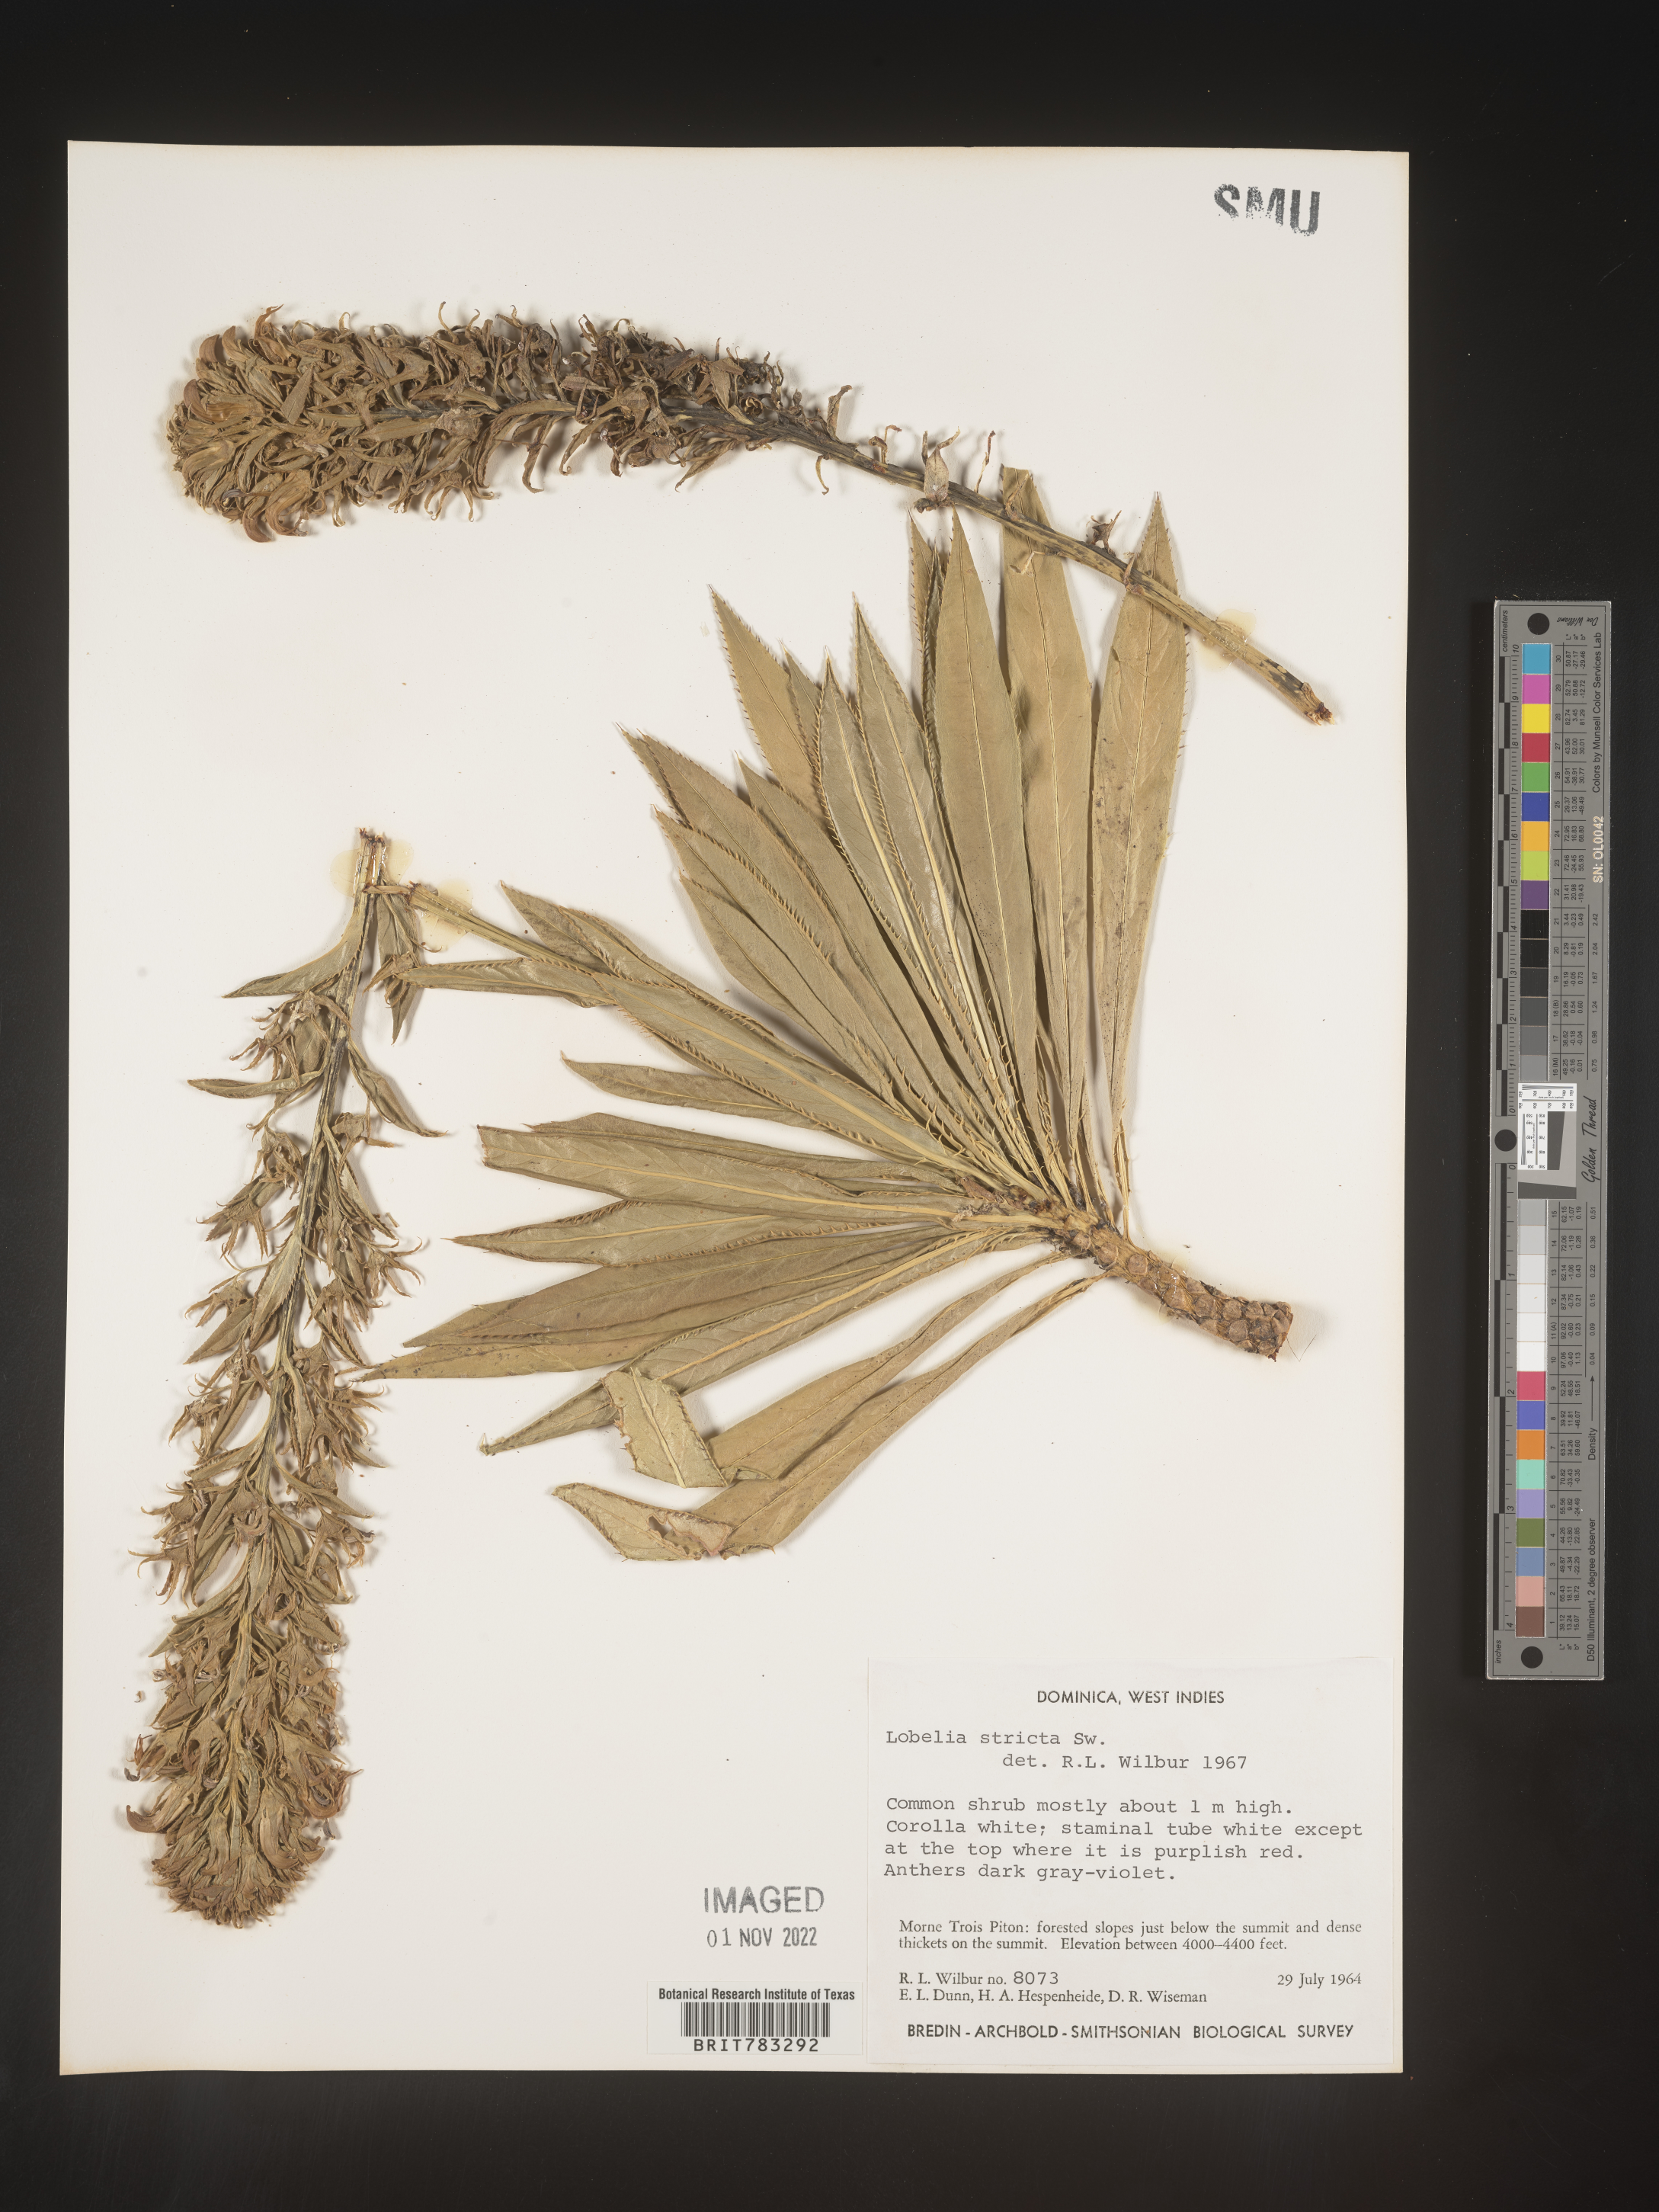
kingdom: Plantae
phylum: Tracheophyta
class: Magnoliopsida
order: Asterales
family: Campanulaceae
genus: Lobelia
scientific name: Lobelia
